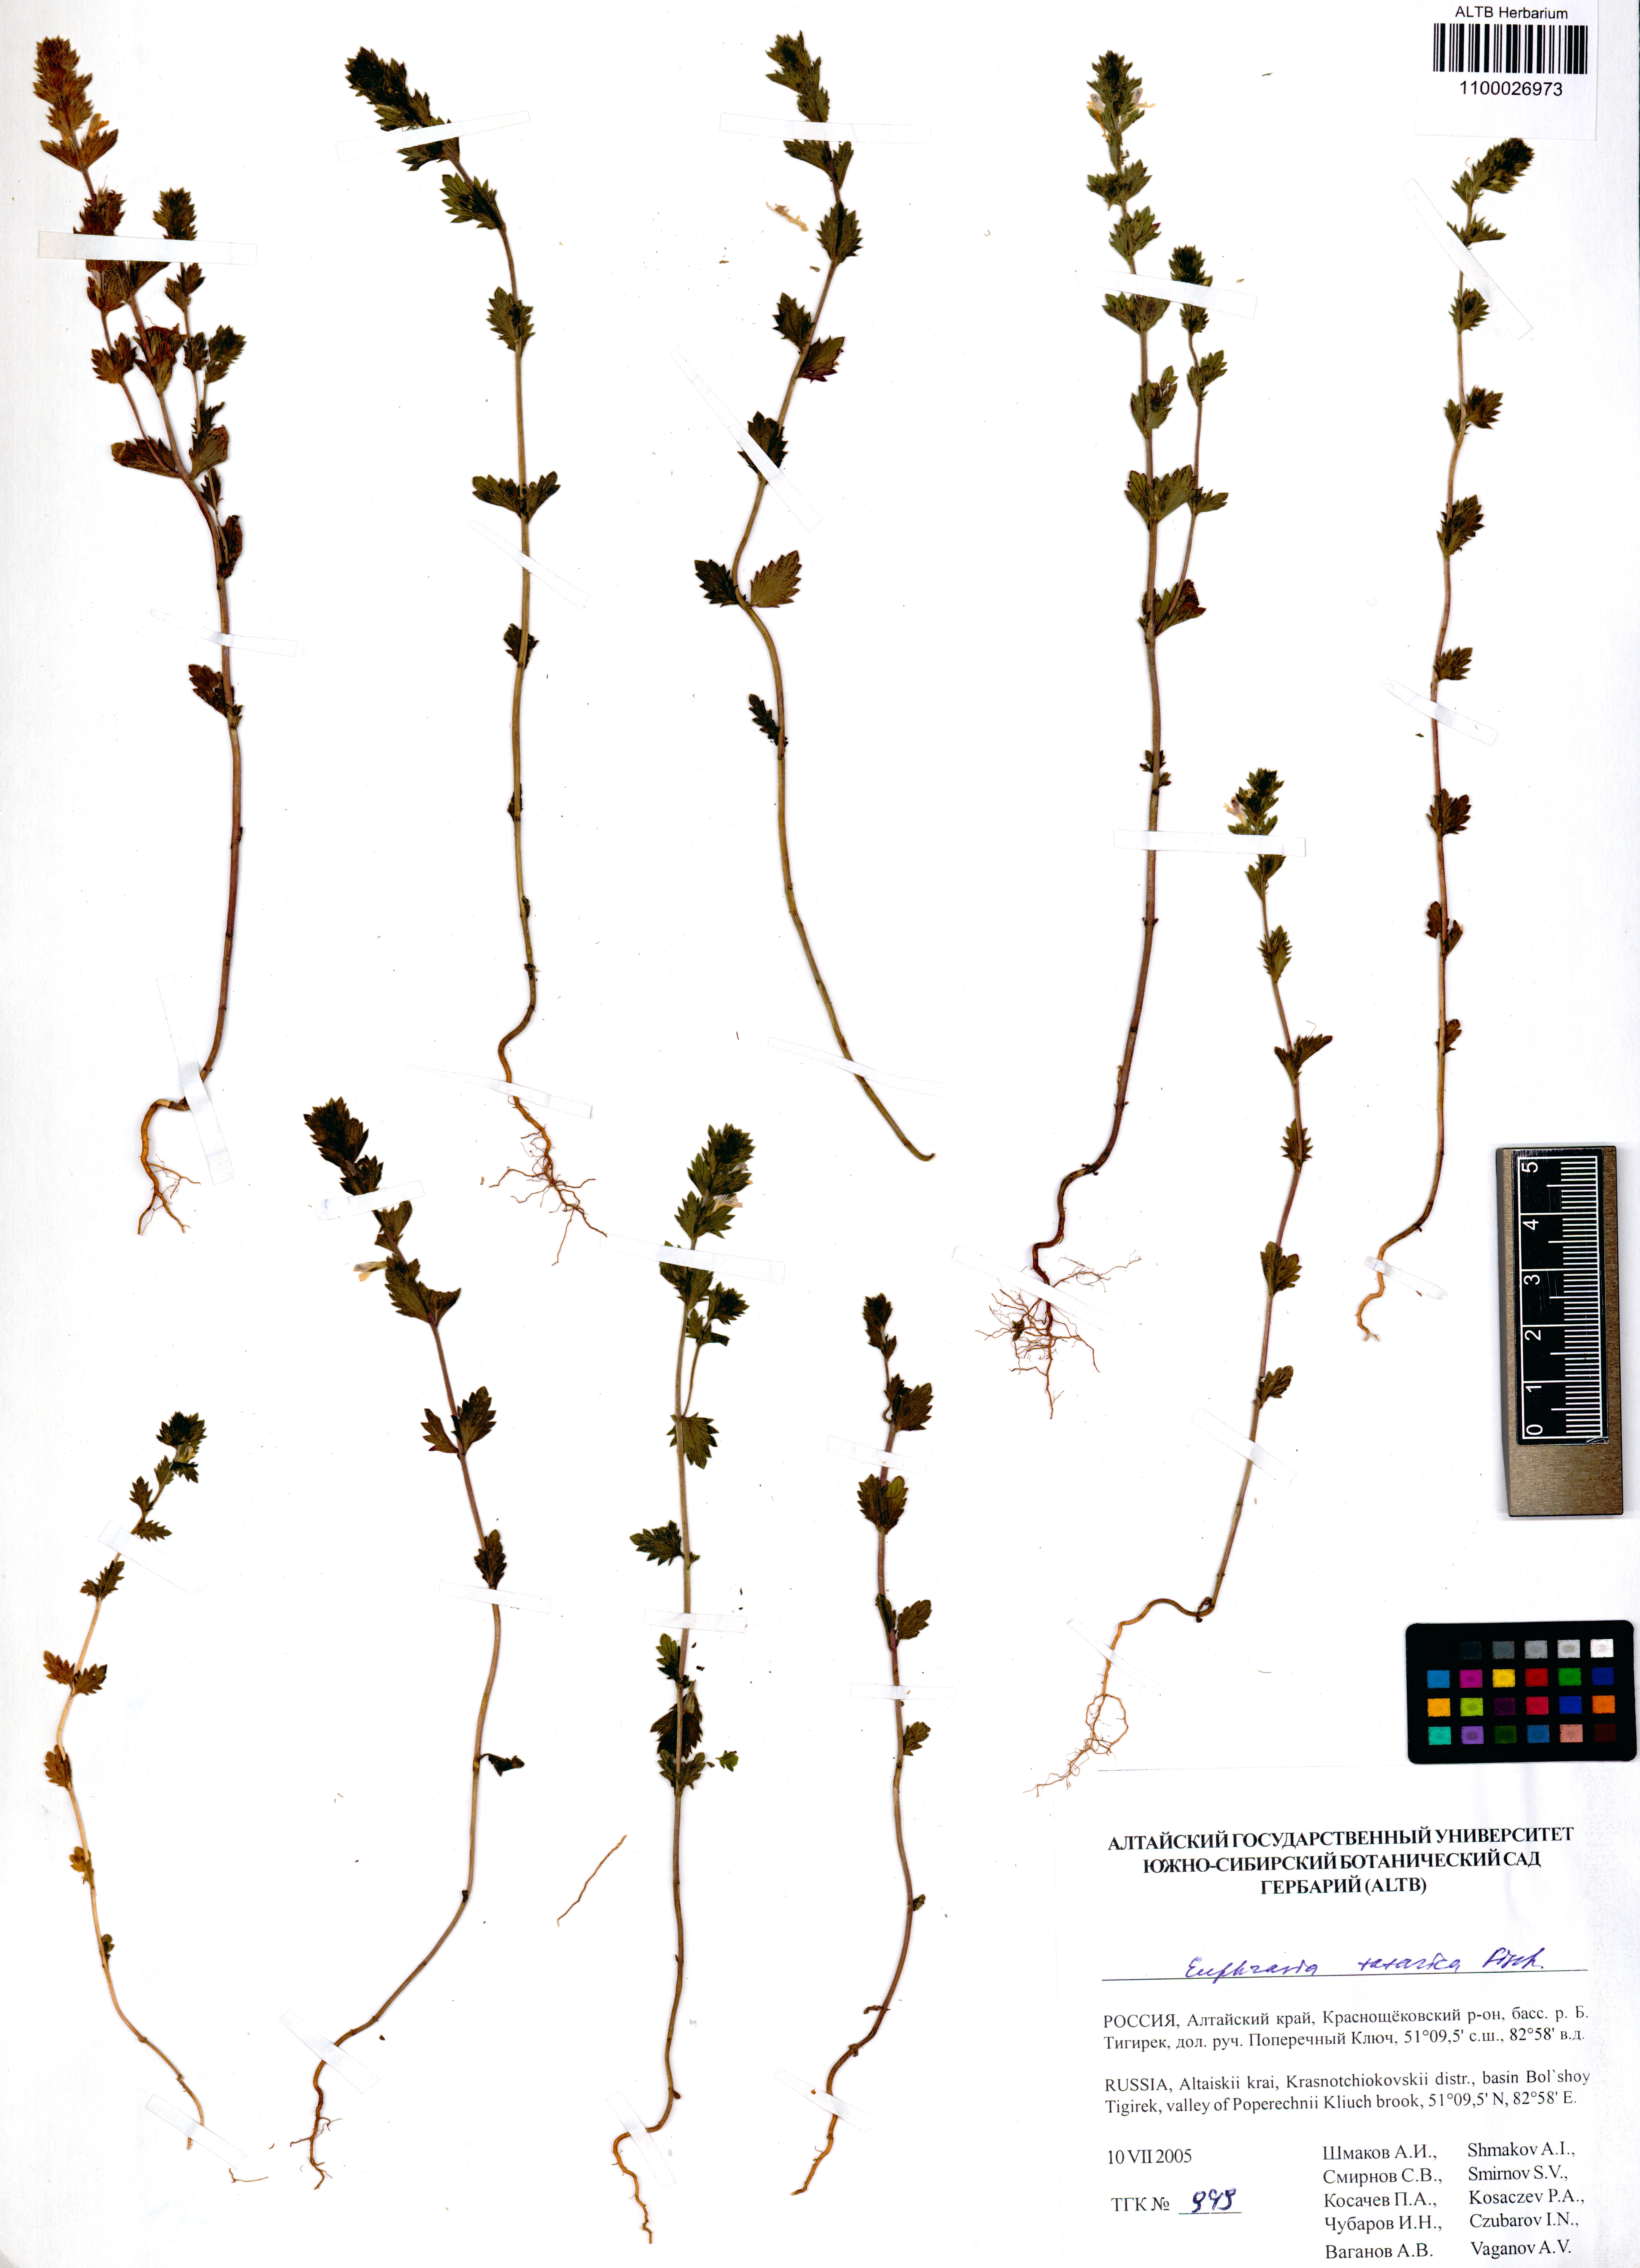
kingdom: Plantae
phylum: Tracheophyta
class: Magnoliopsida
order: Lamiales
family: Orobanchaceae
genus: Euphrasia
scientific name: Euphrasia pectinata
